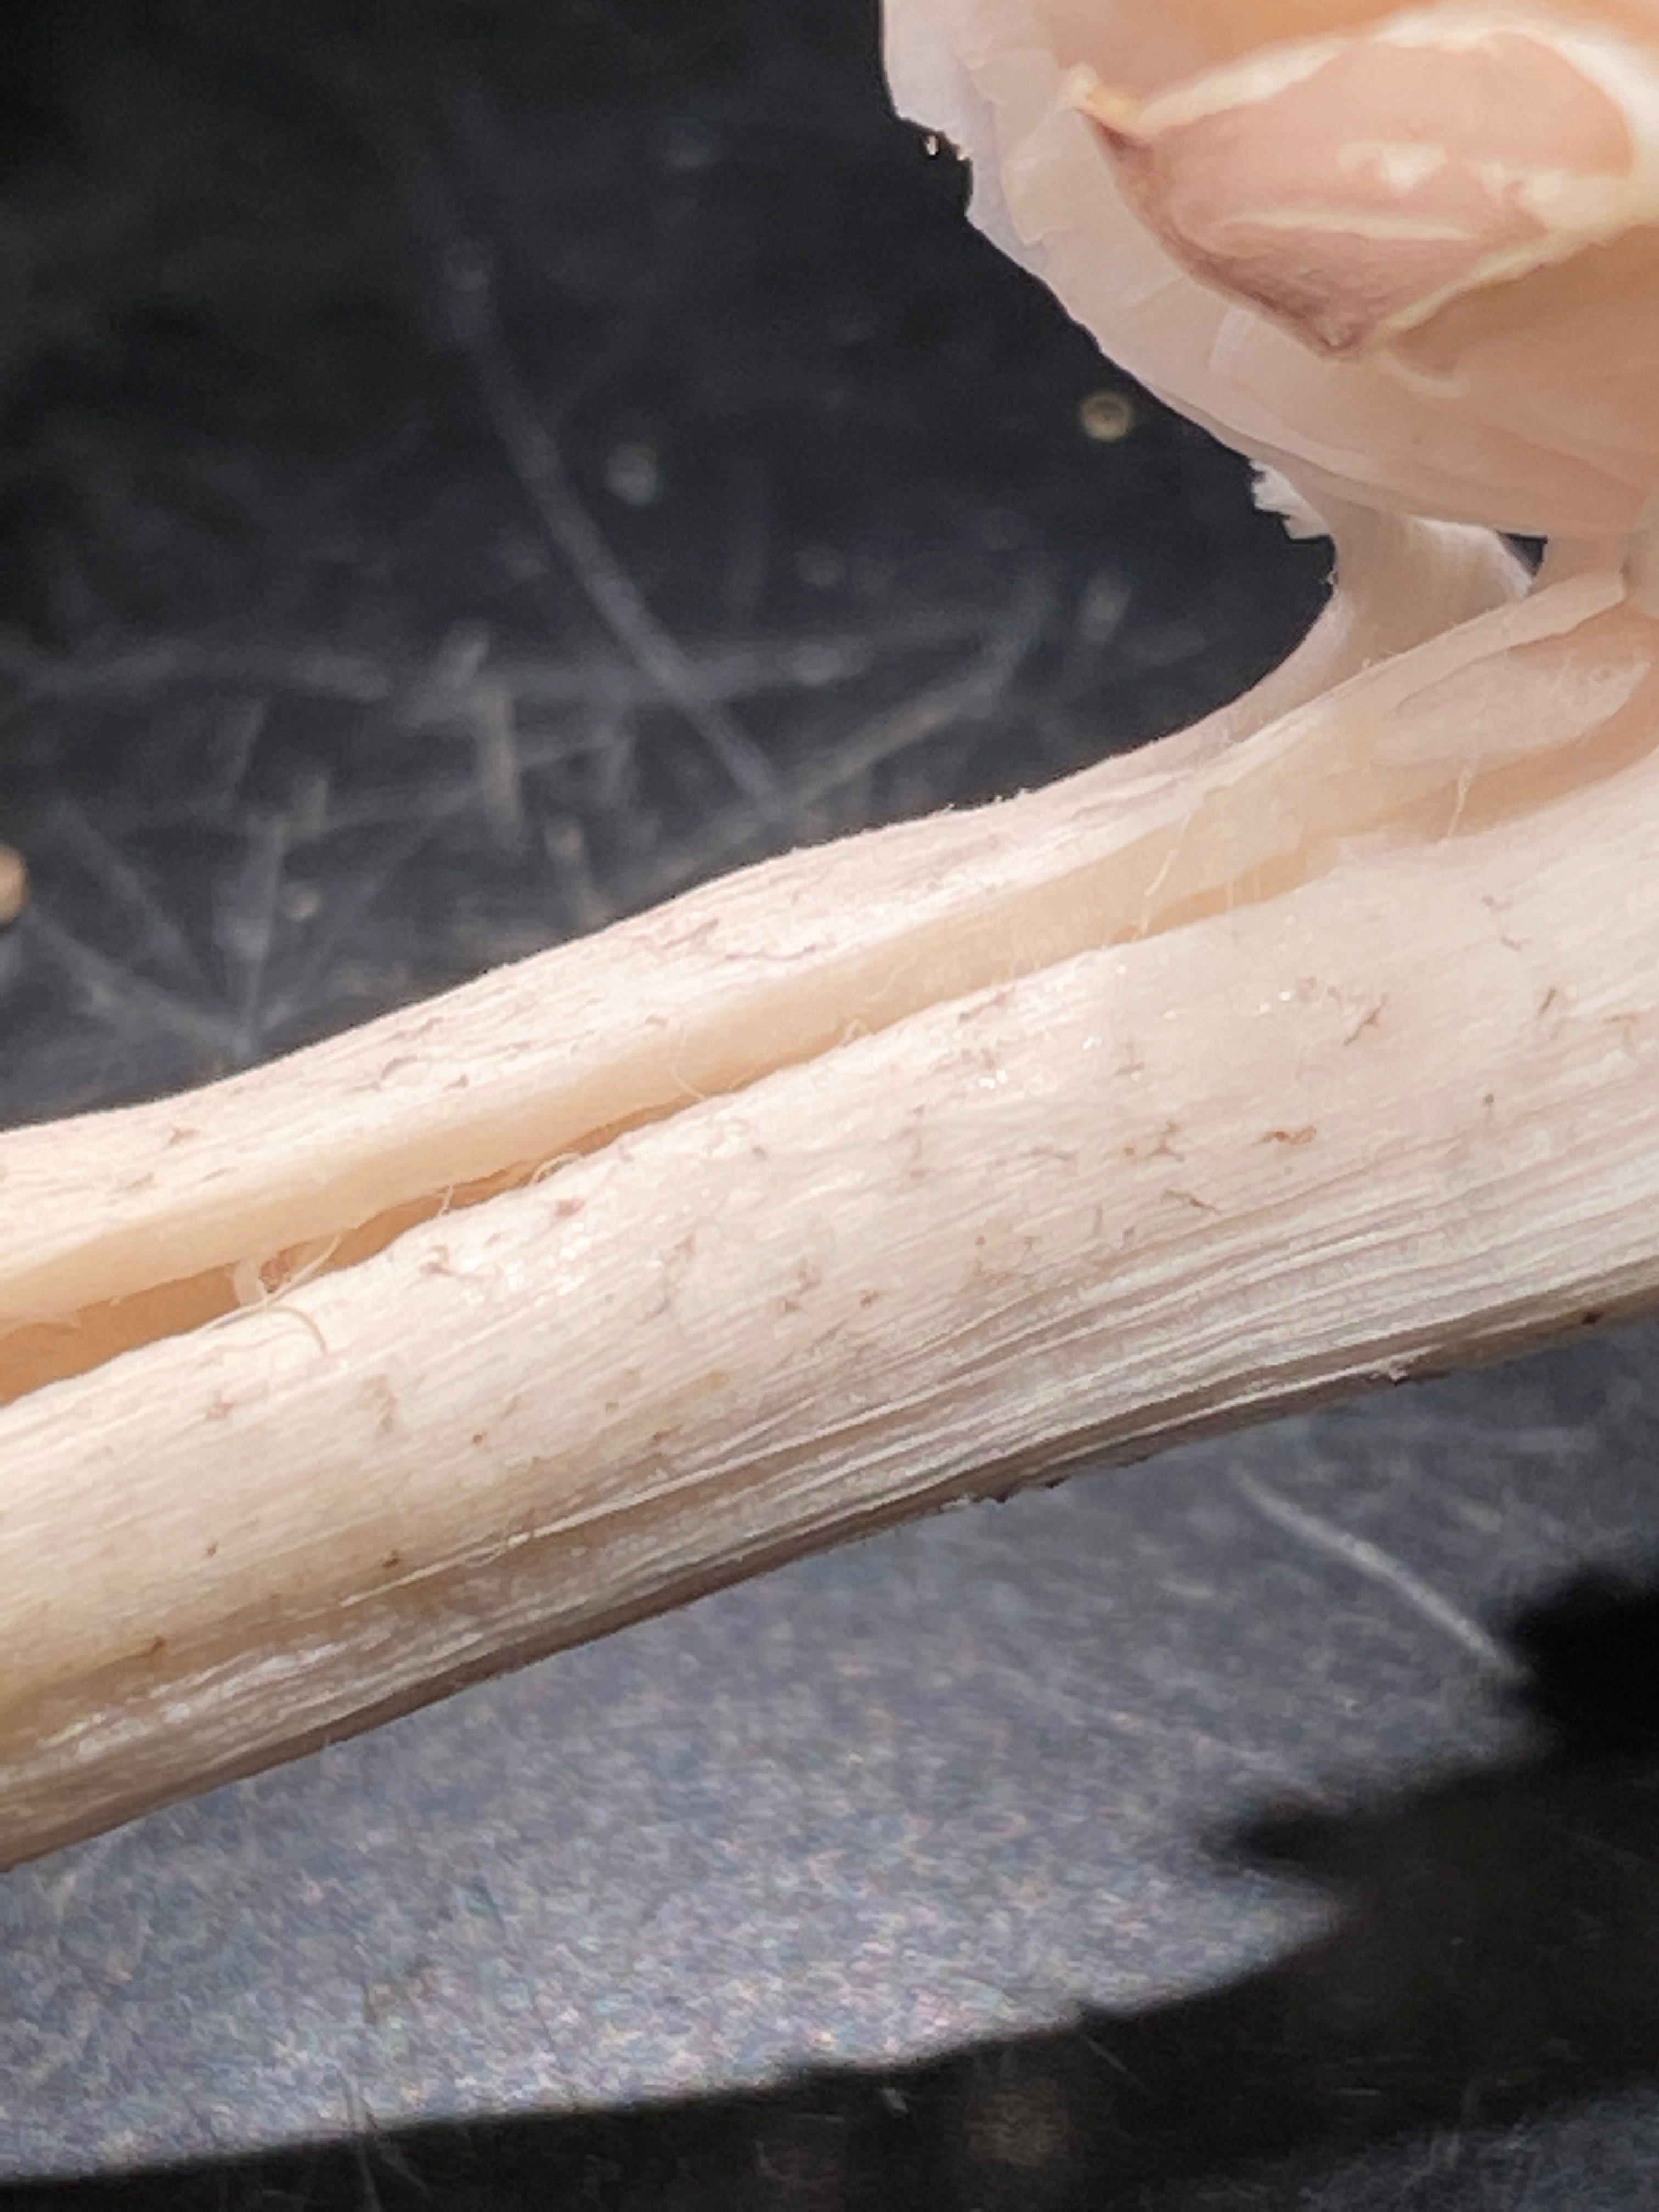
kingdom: Fungi
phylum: Basidiomycota
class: Agaricomycetes
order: Agaricales
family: Tricholomataceae
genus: Dermoloma
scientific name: Dermoloma
